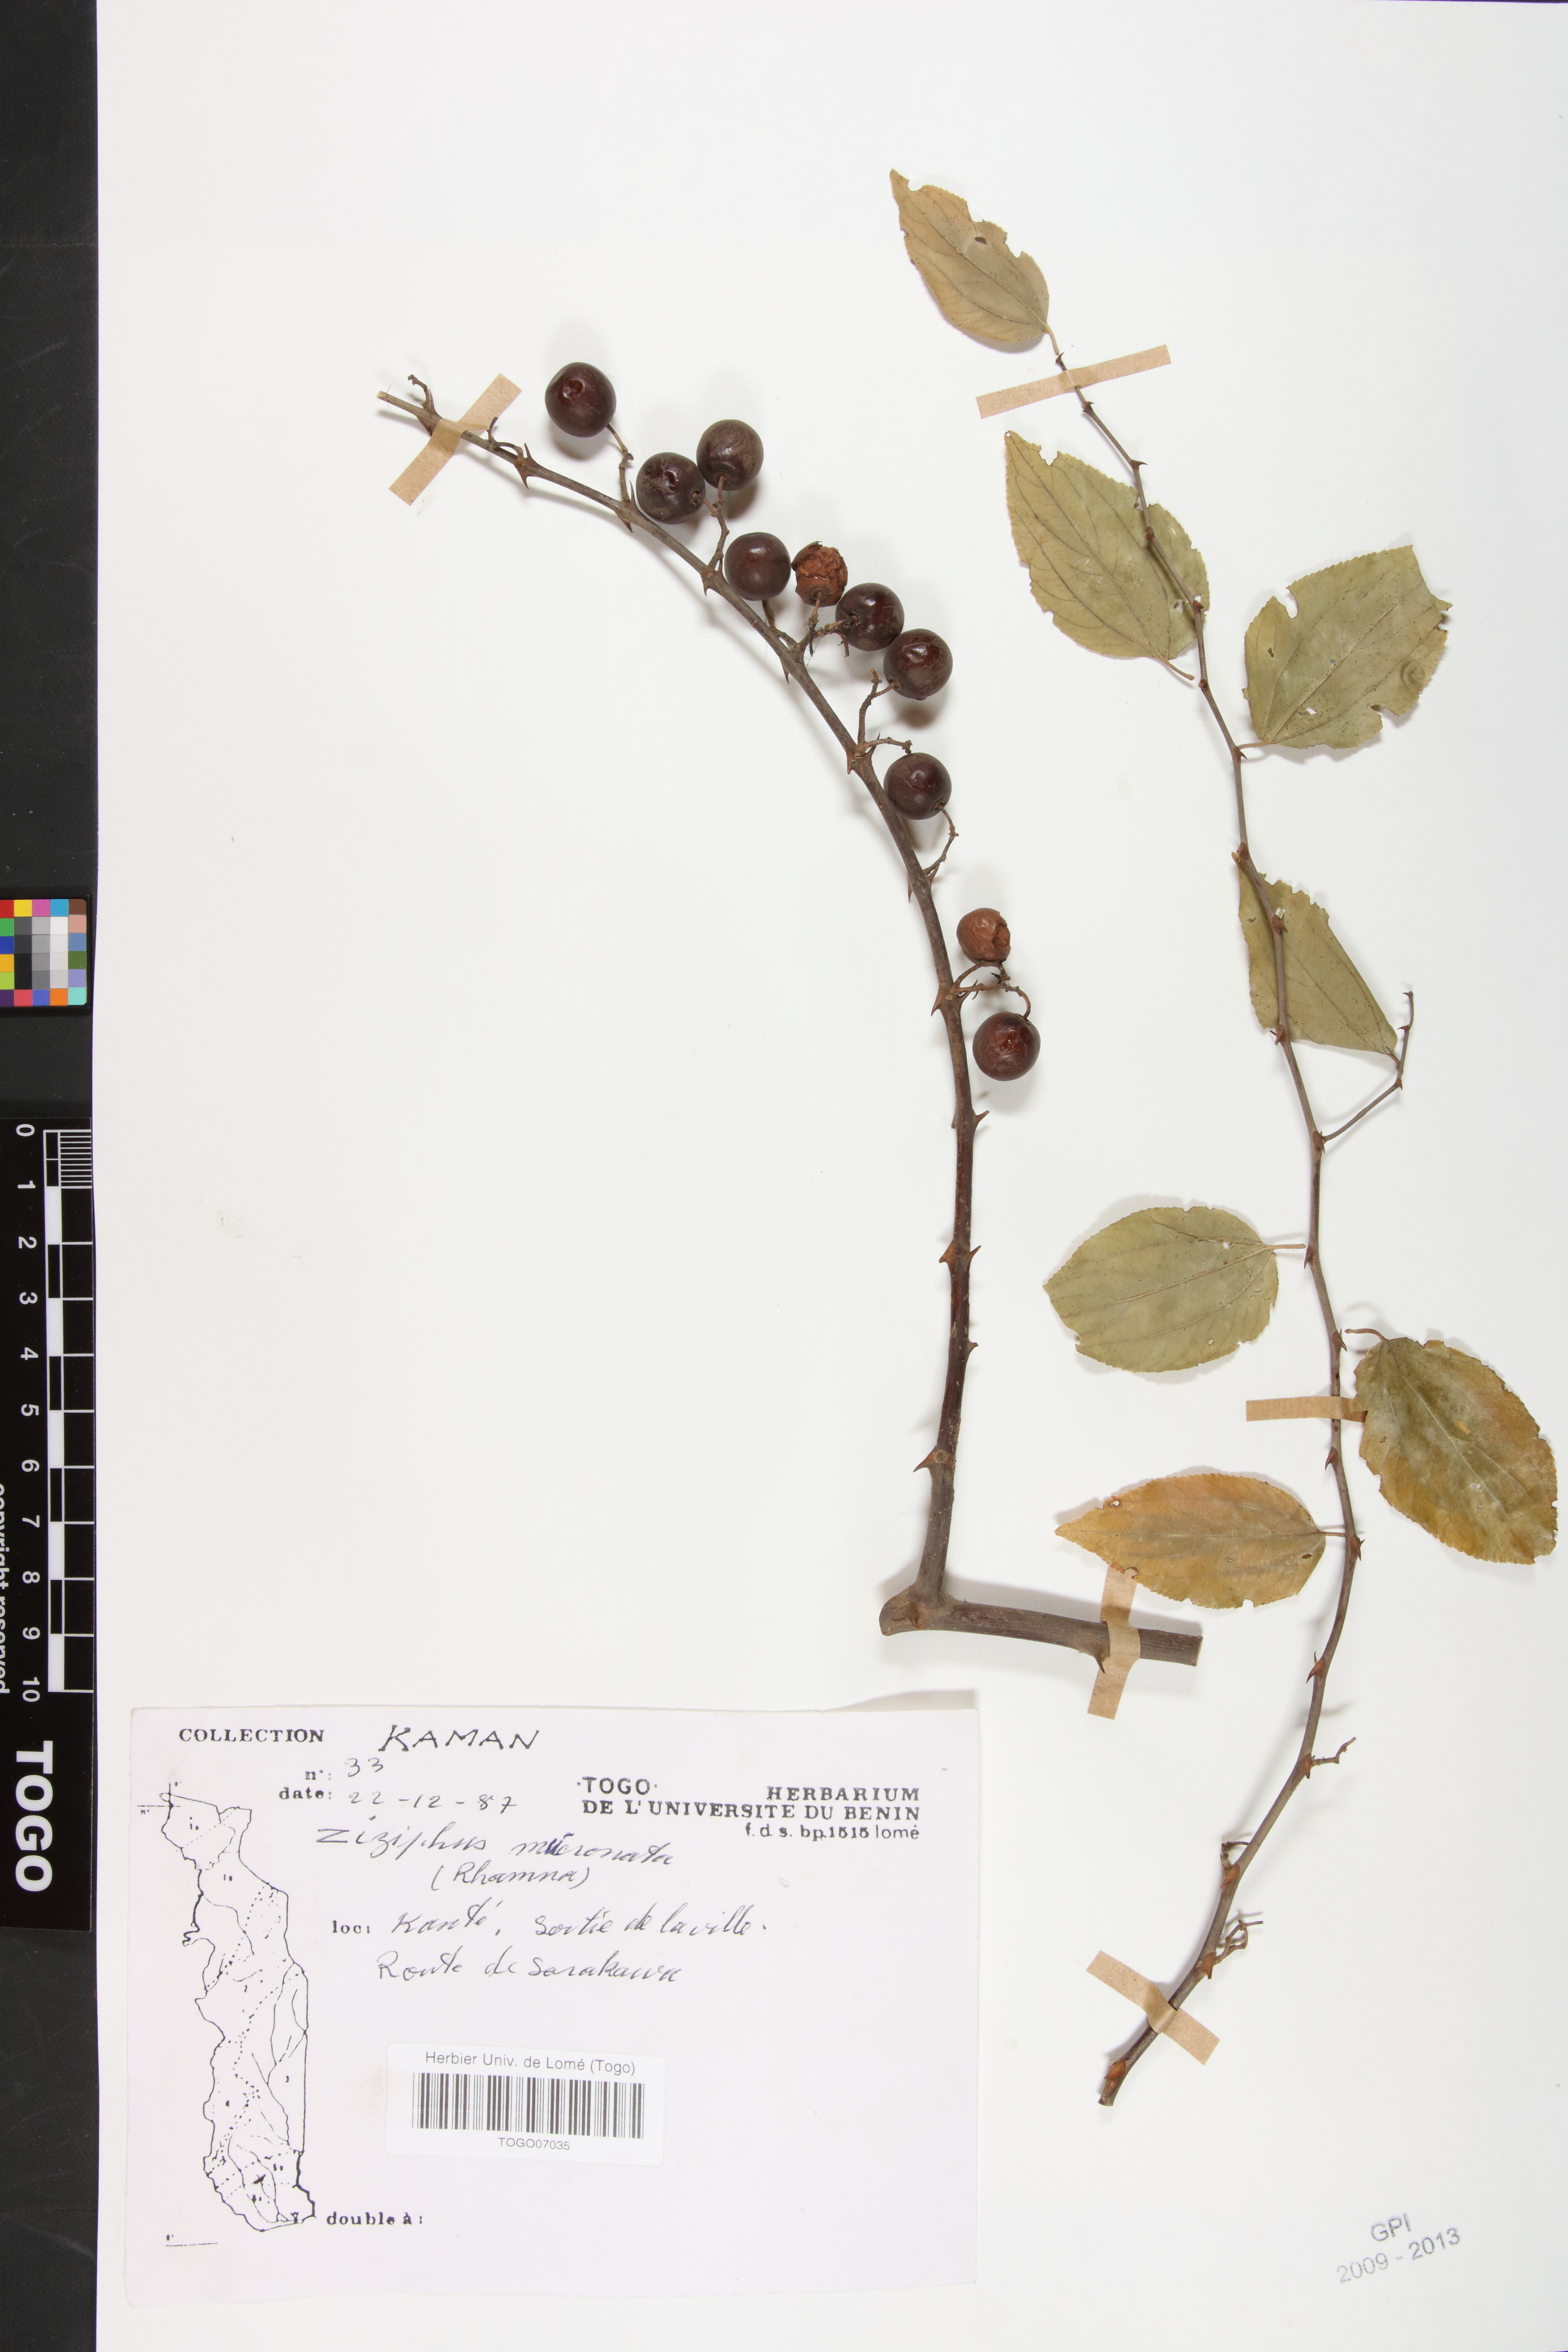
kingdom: Plantae
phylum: Tracheophyta
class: Magnoliopsida
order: Rosales
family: Rhamnaceae
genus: Ziziphus
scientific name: Ziziphus mucronata
